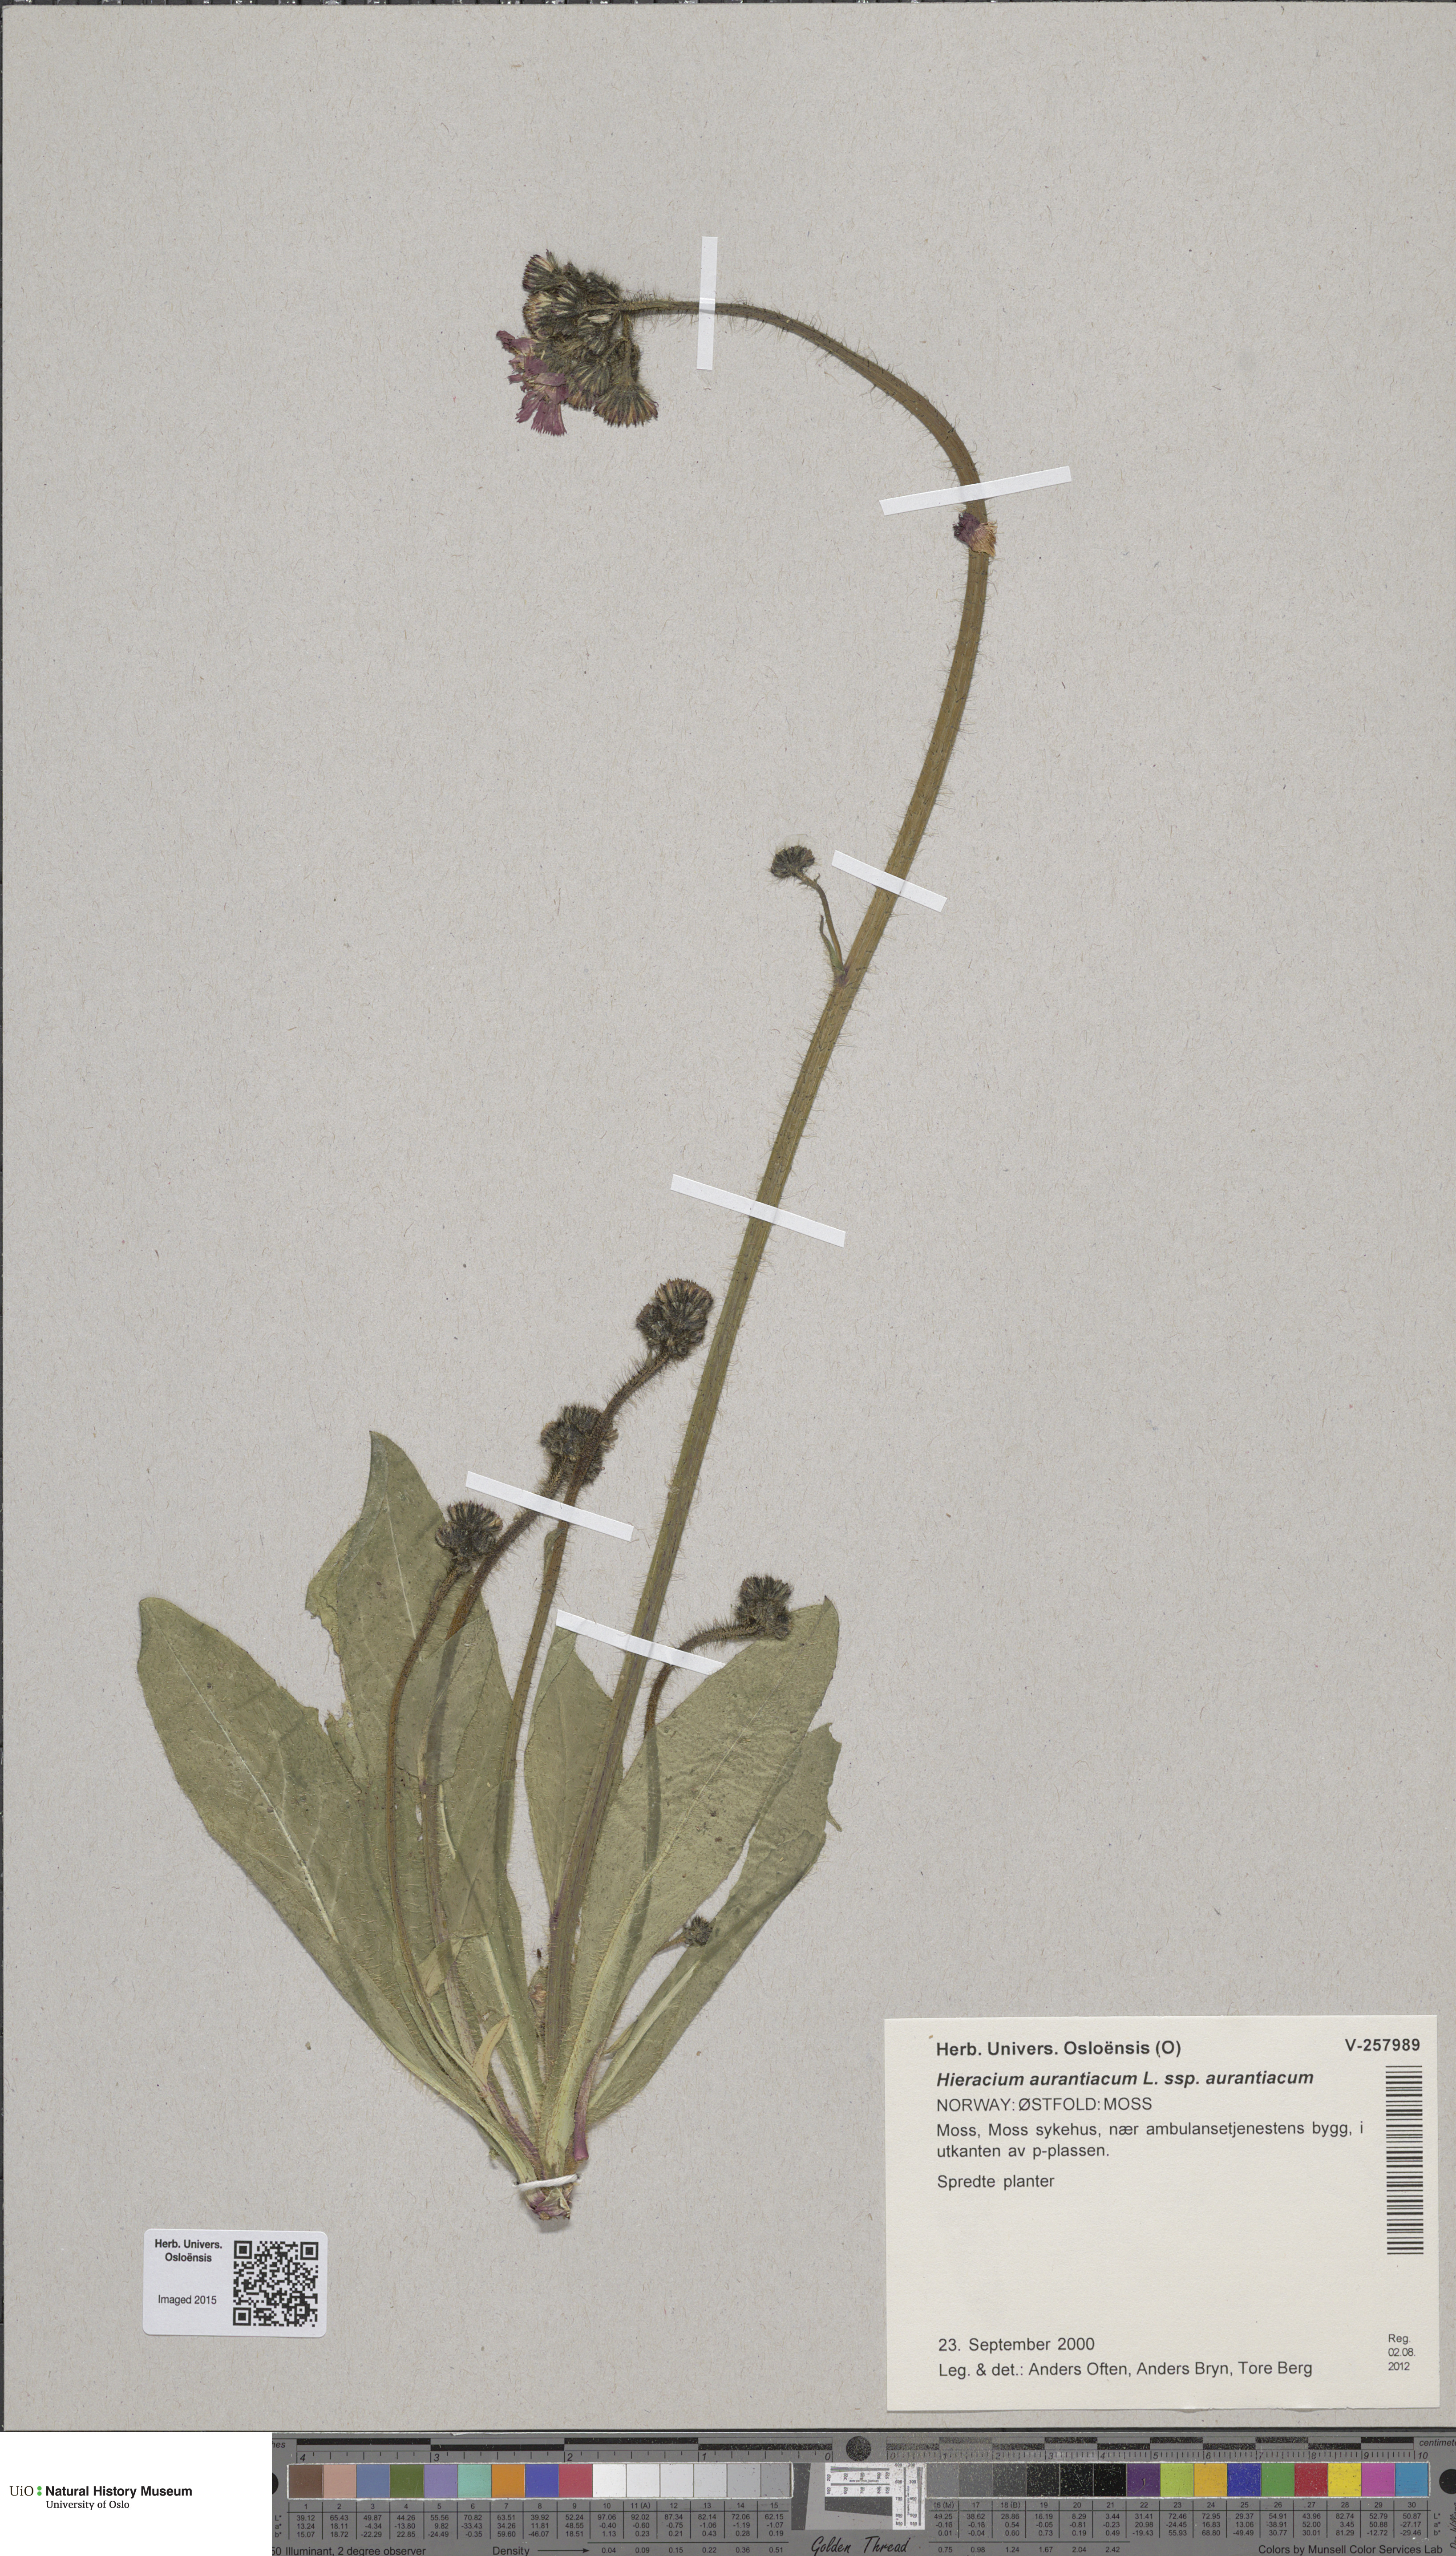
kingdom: Plantae
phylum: Tracheophyta
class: Magnoliopsida
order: Asterales
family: Asteraceae
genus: Pilosella
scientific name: Pilosella aurantiaca
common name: Fox-and-cubs
